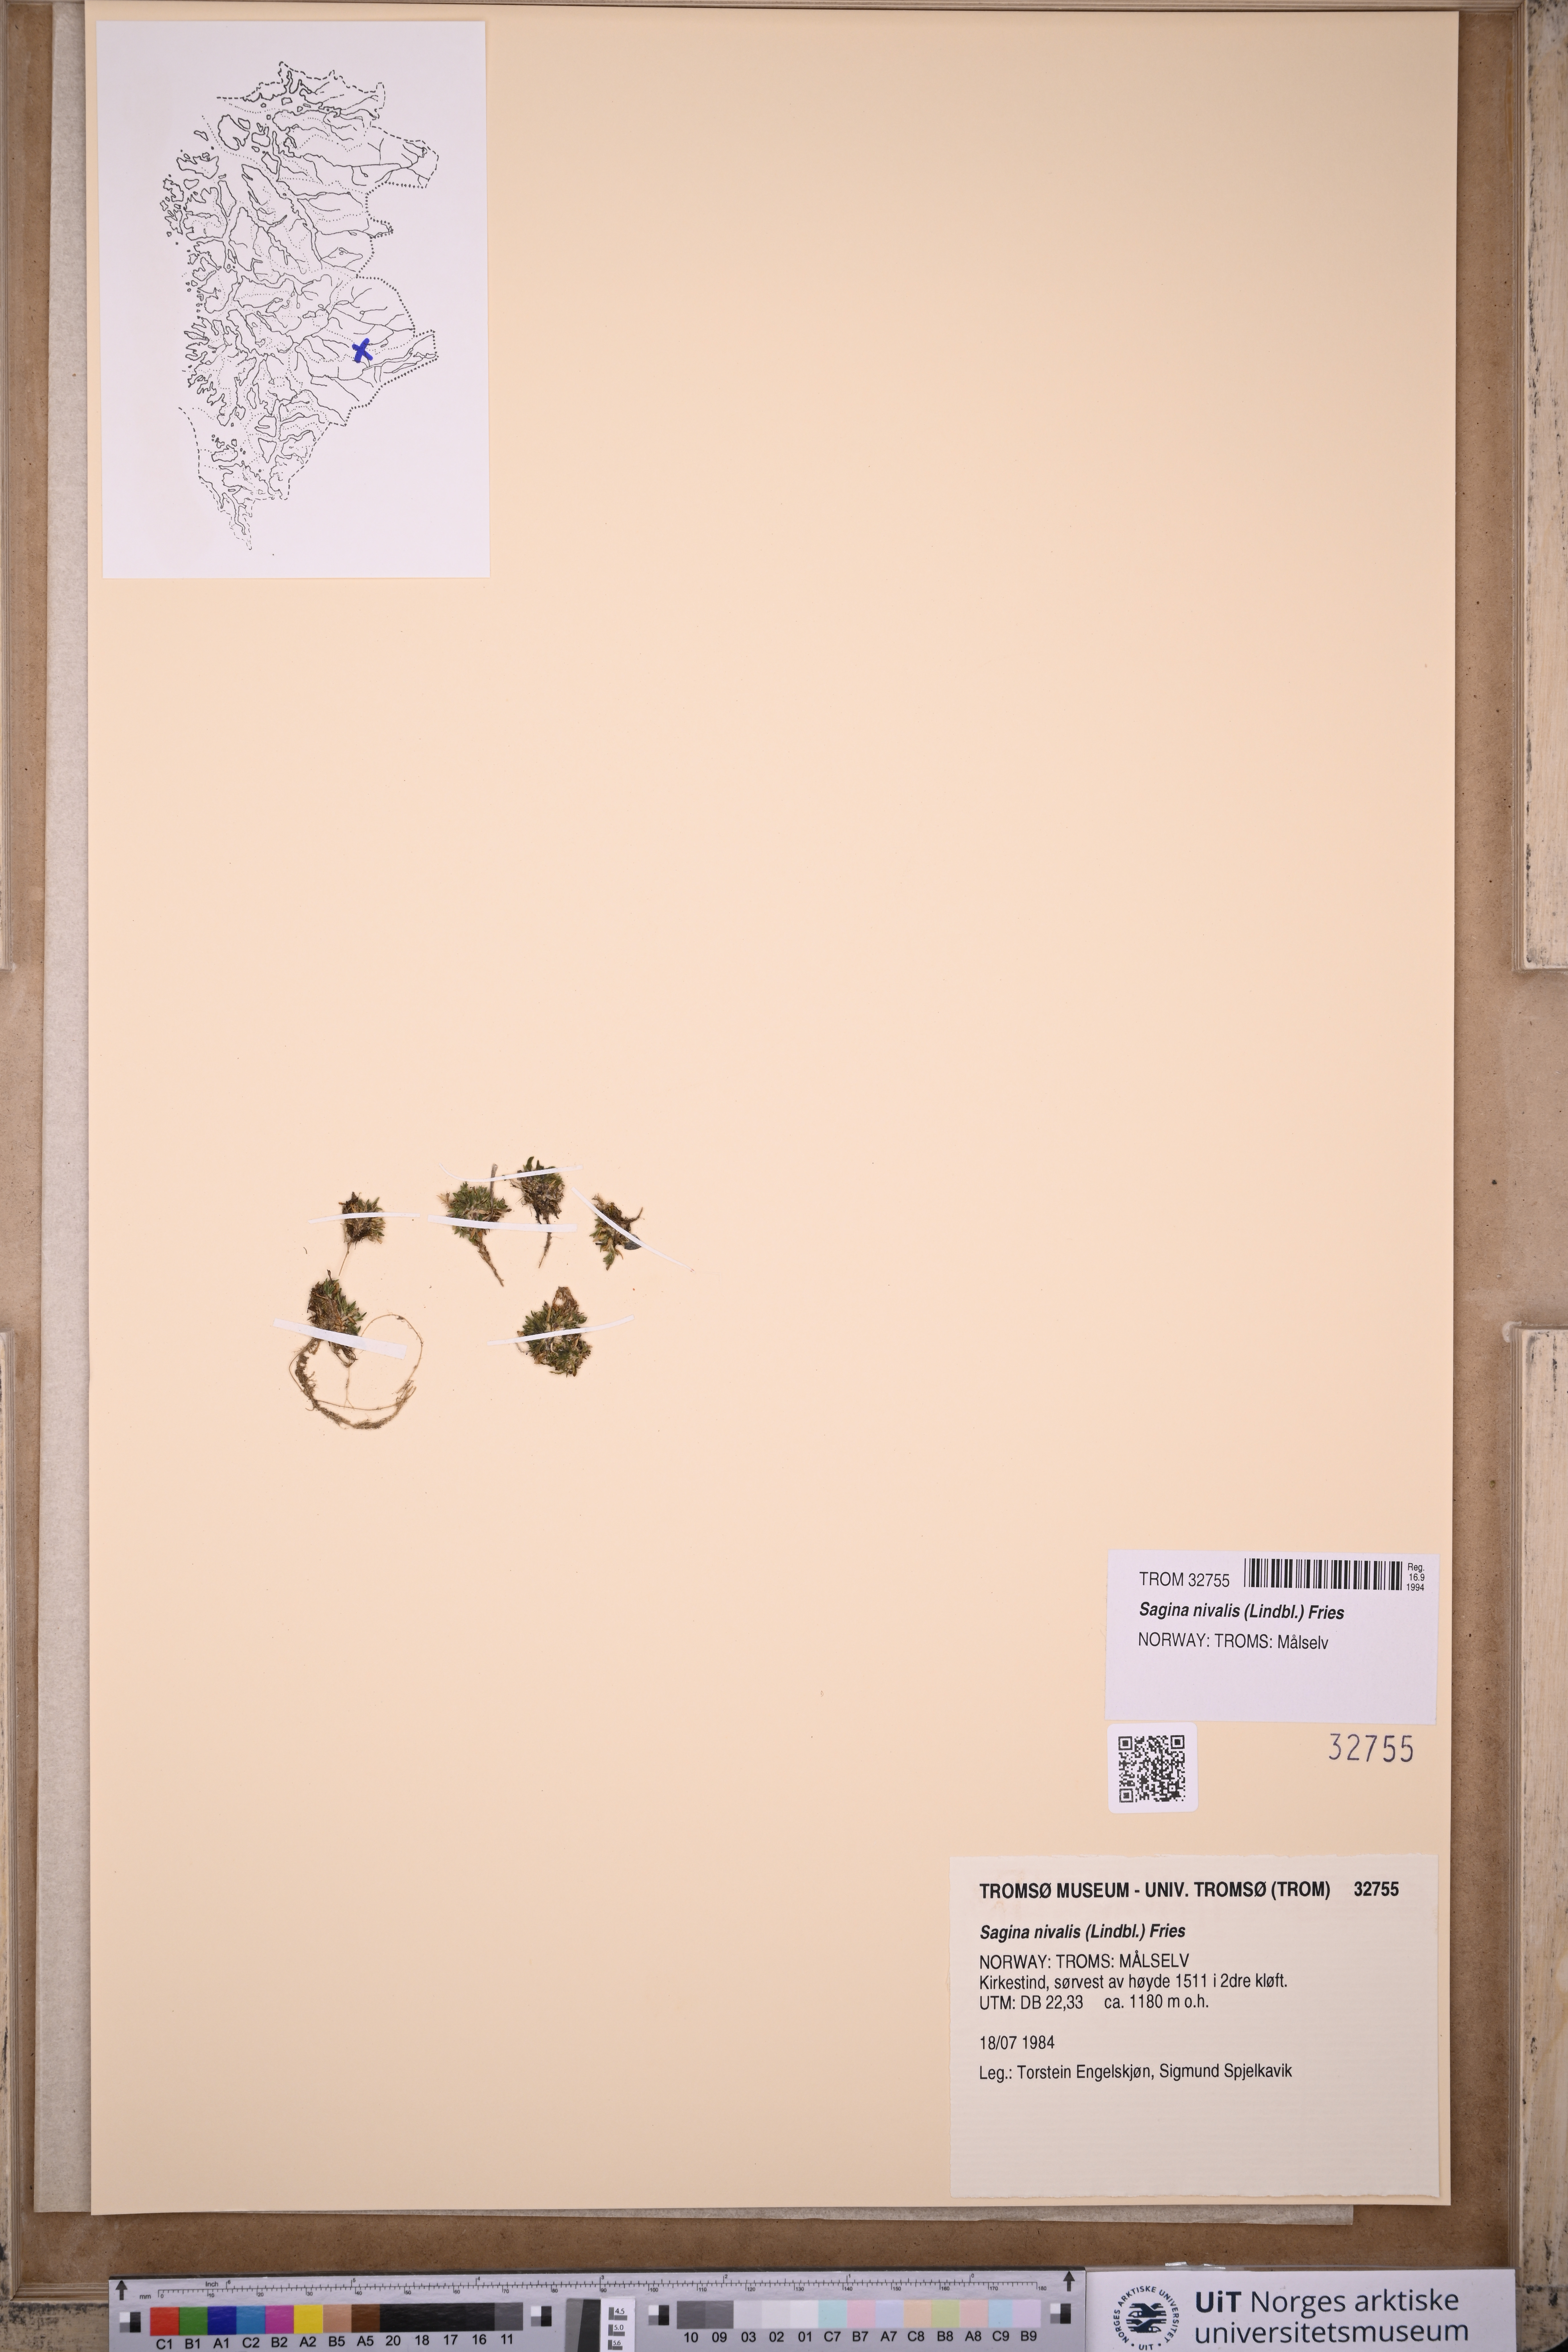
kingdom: Plantae
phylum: Tracheophyta
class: Magnoliopsida
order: Caryophyllales
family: Caryophyllaceae
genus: Sagina
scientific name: Sagina nivalis
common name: Snow pearlwort
